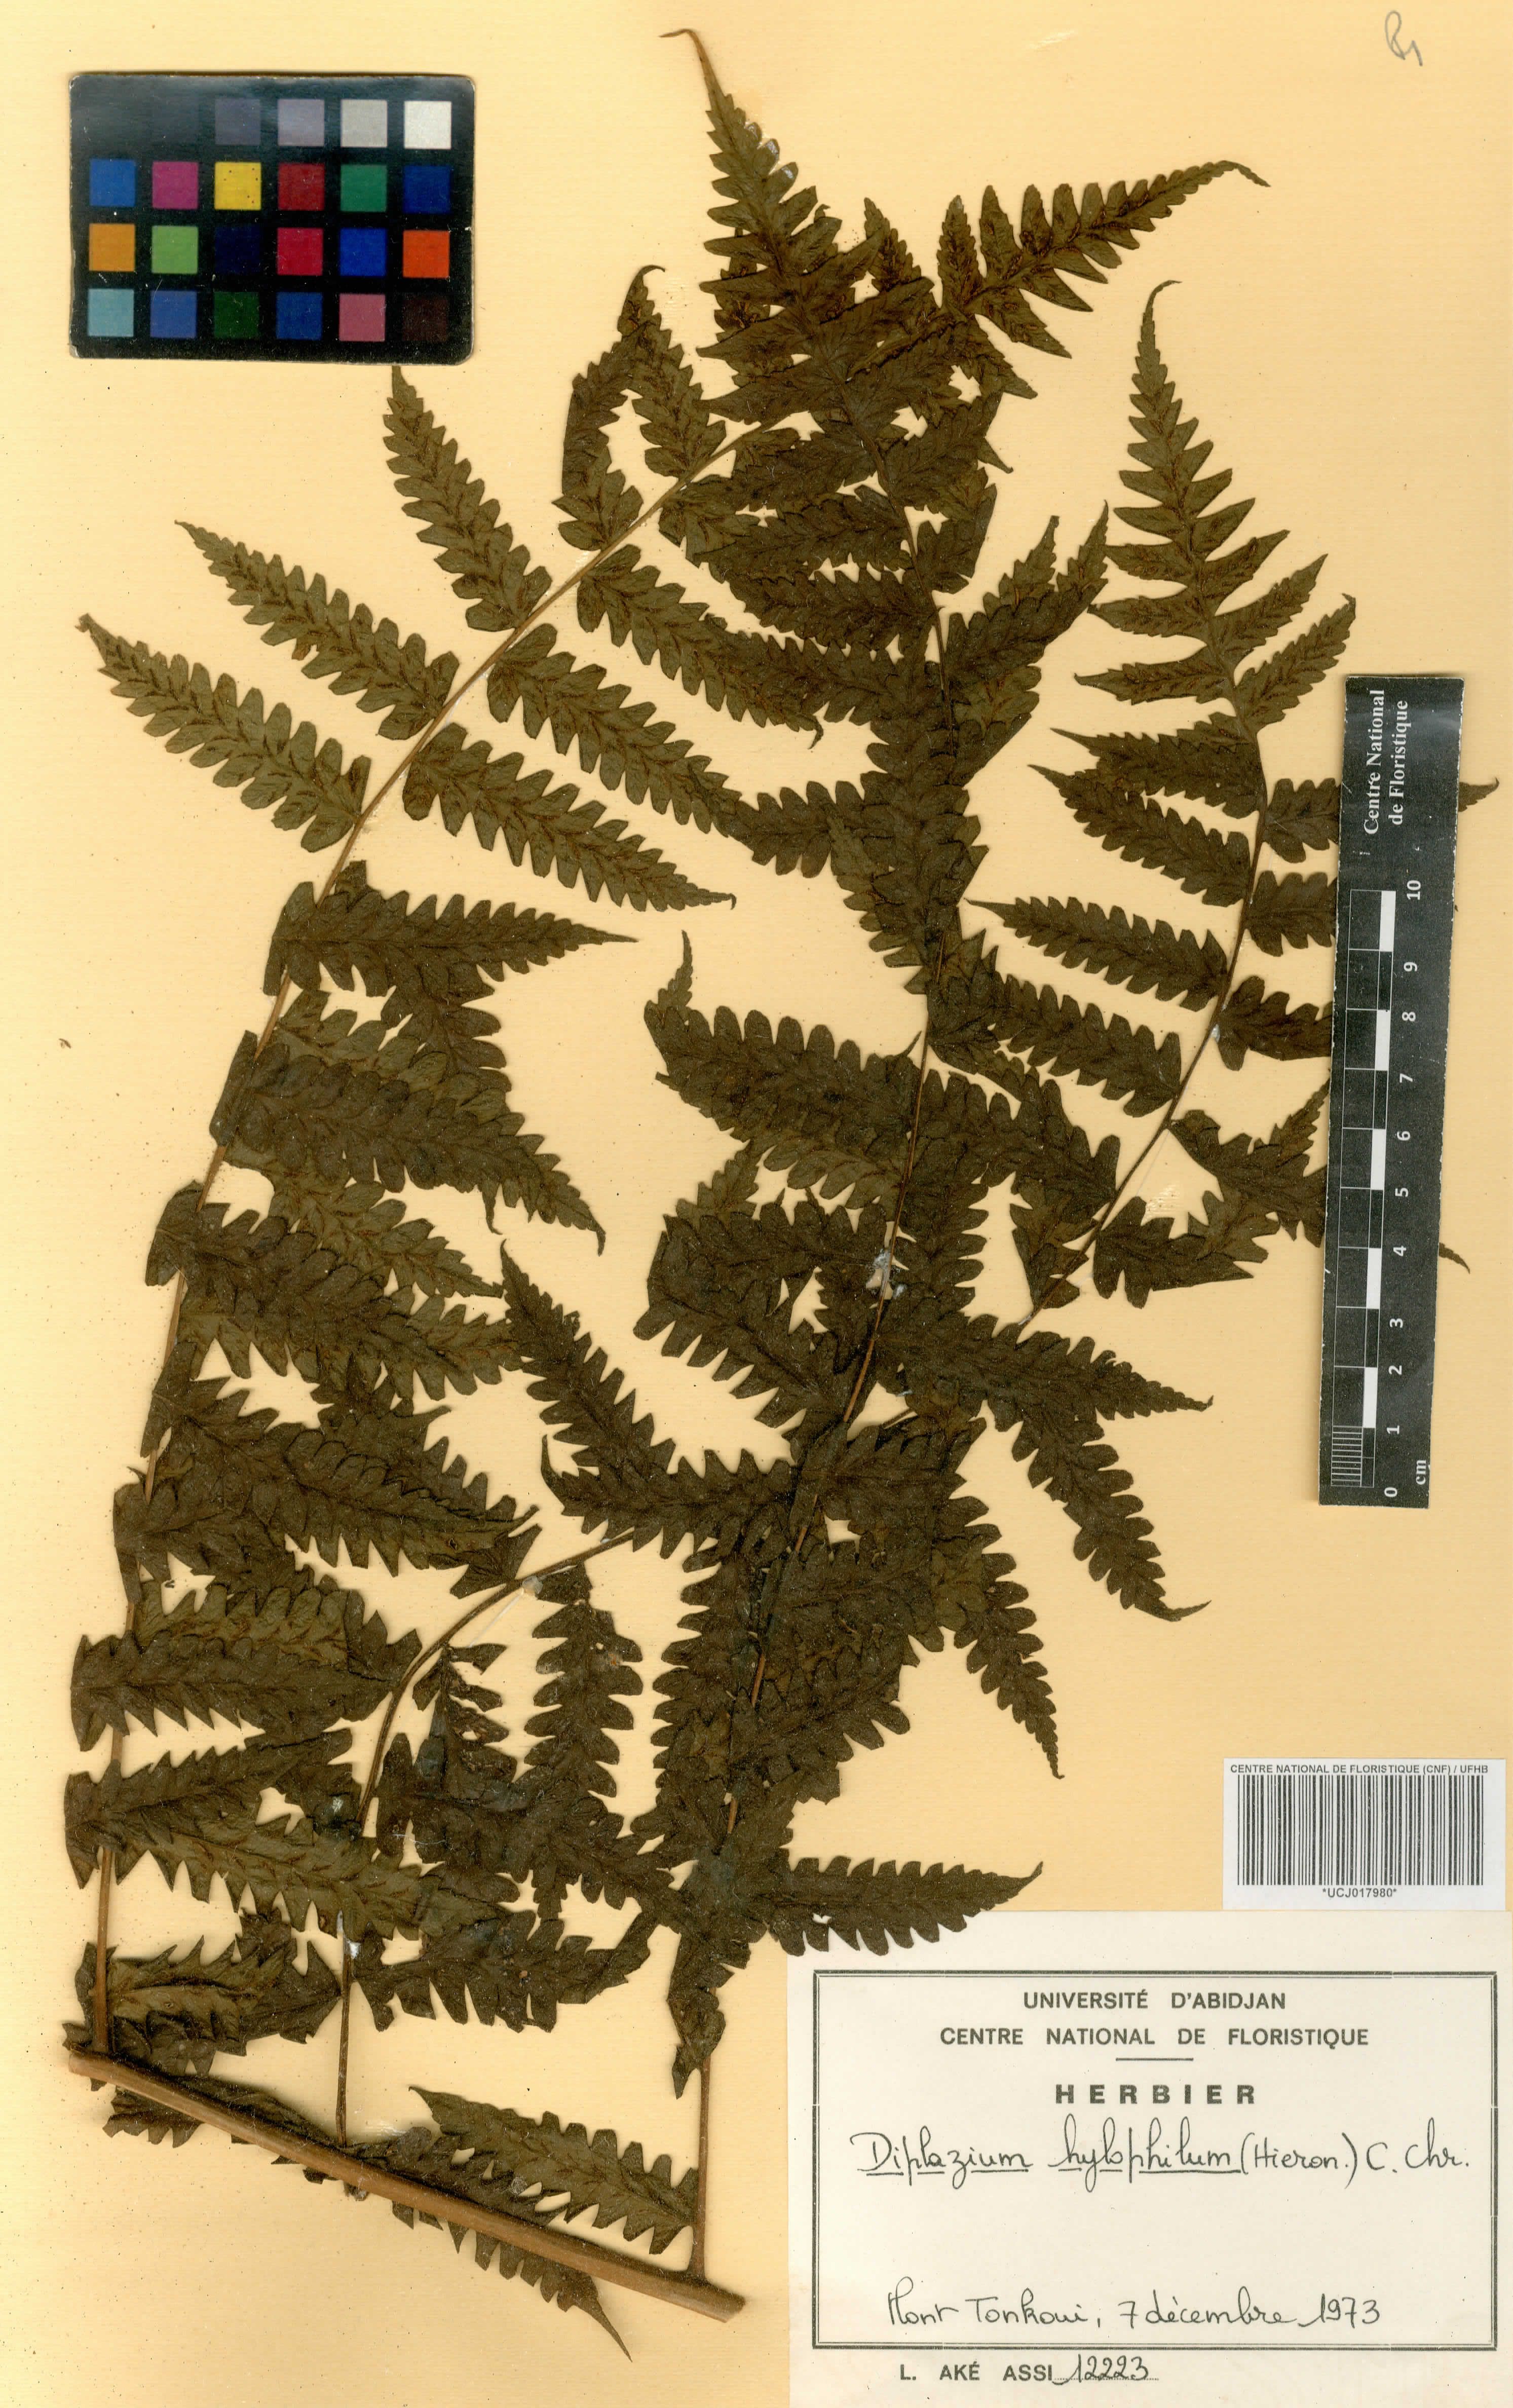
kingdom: Plantae
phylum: Tracheophyta
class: Polypodiopsida
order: Polypodiales
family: Athyriaceae
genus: Diplazium
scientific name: Diplazium nemorale
